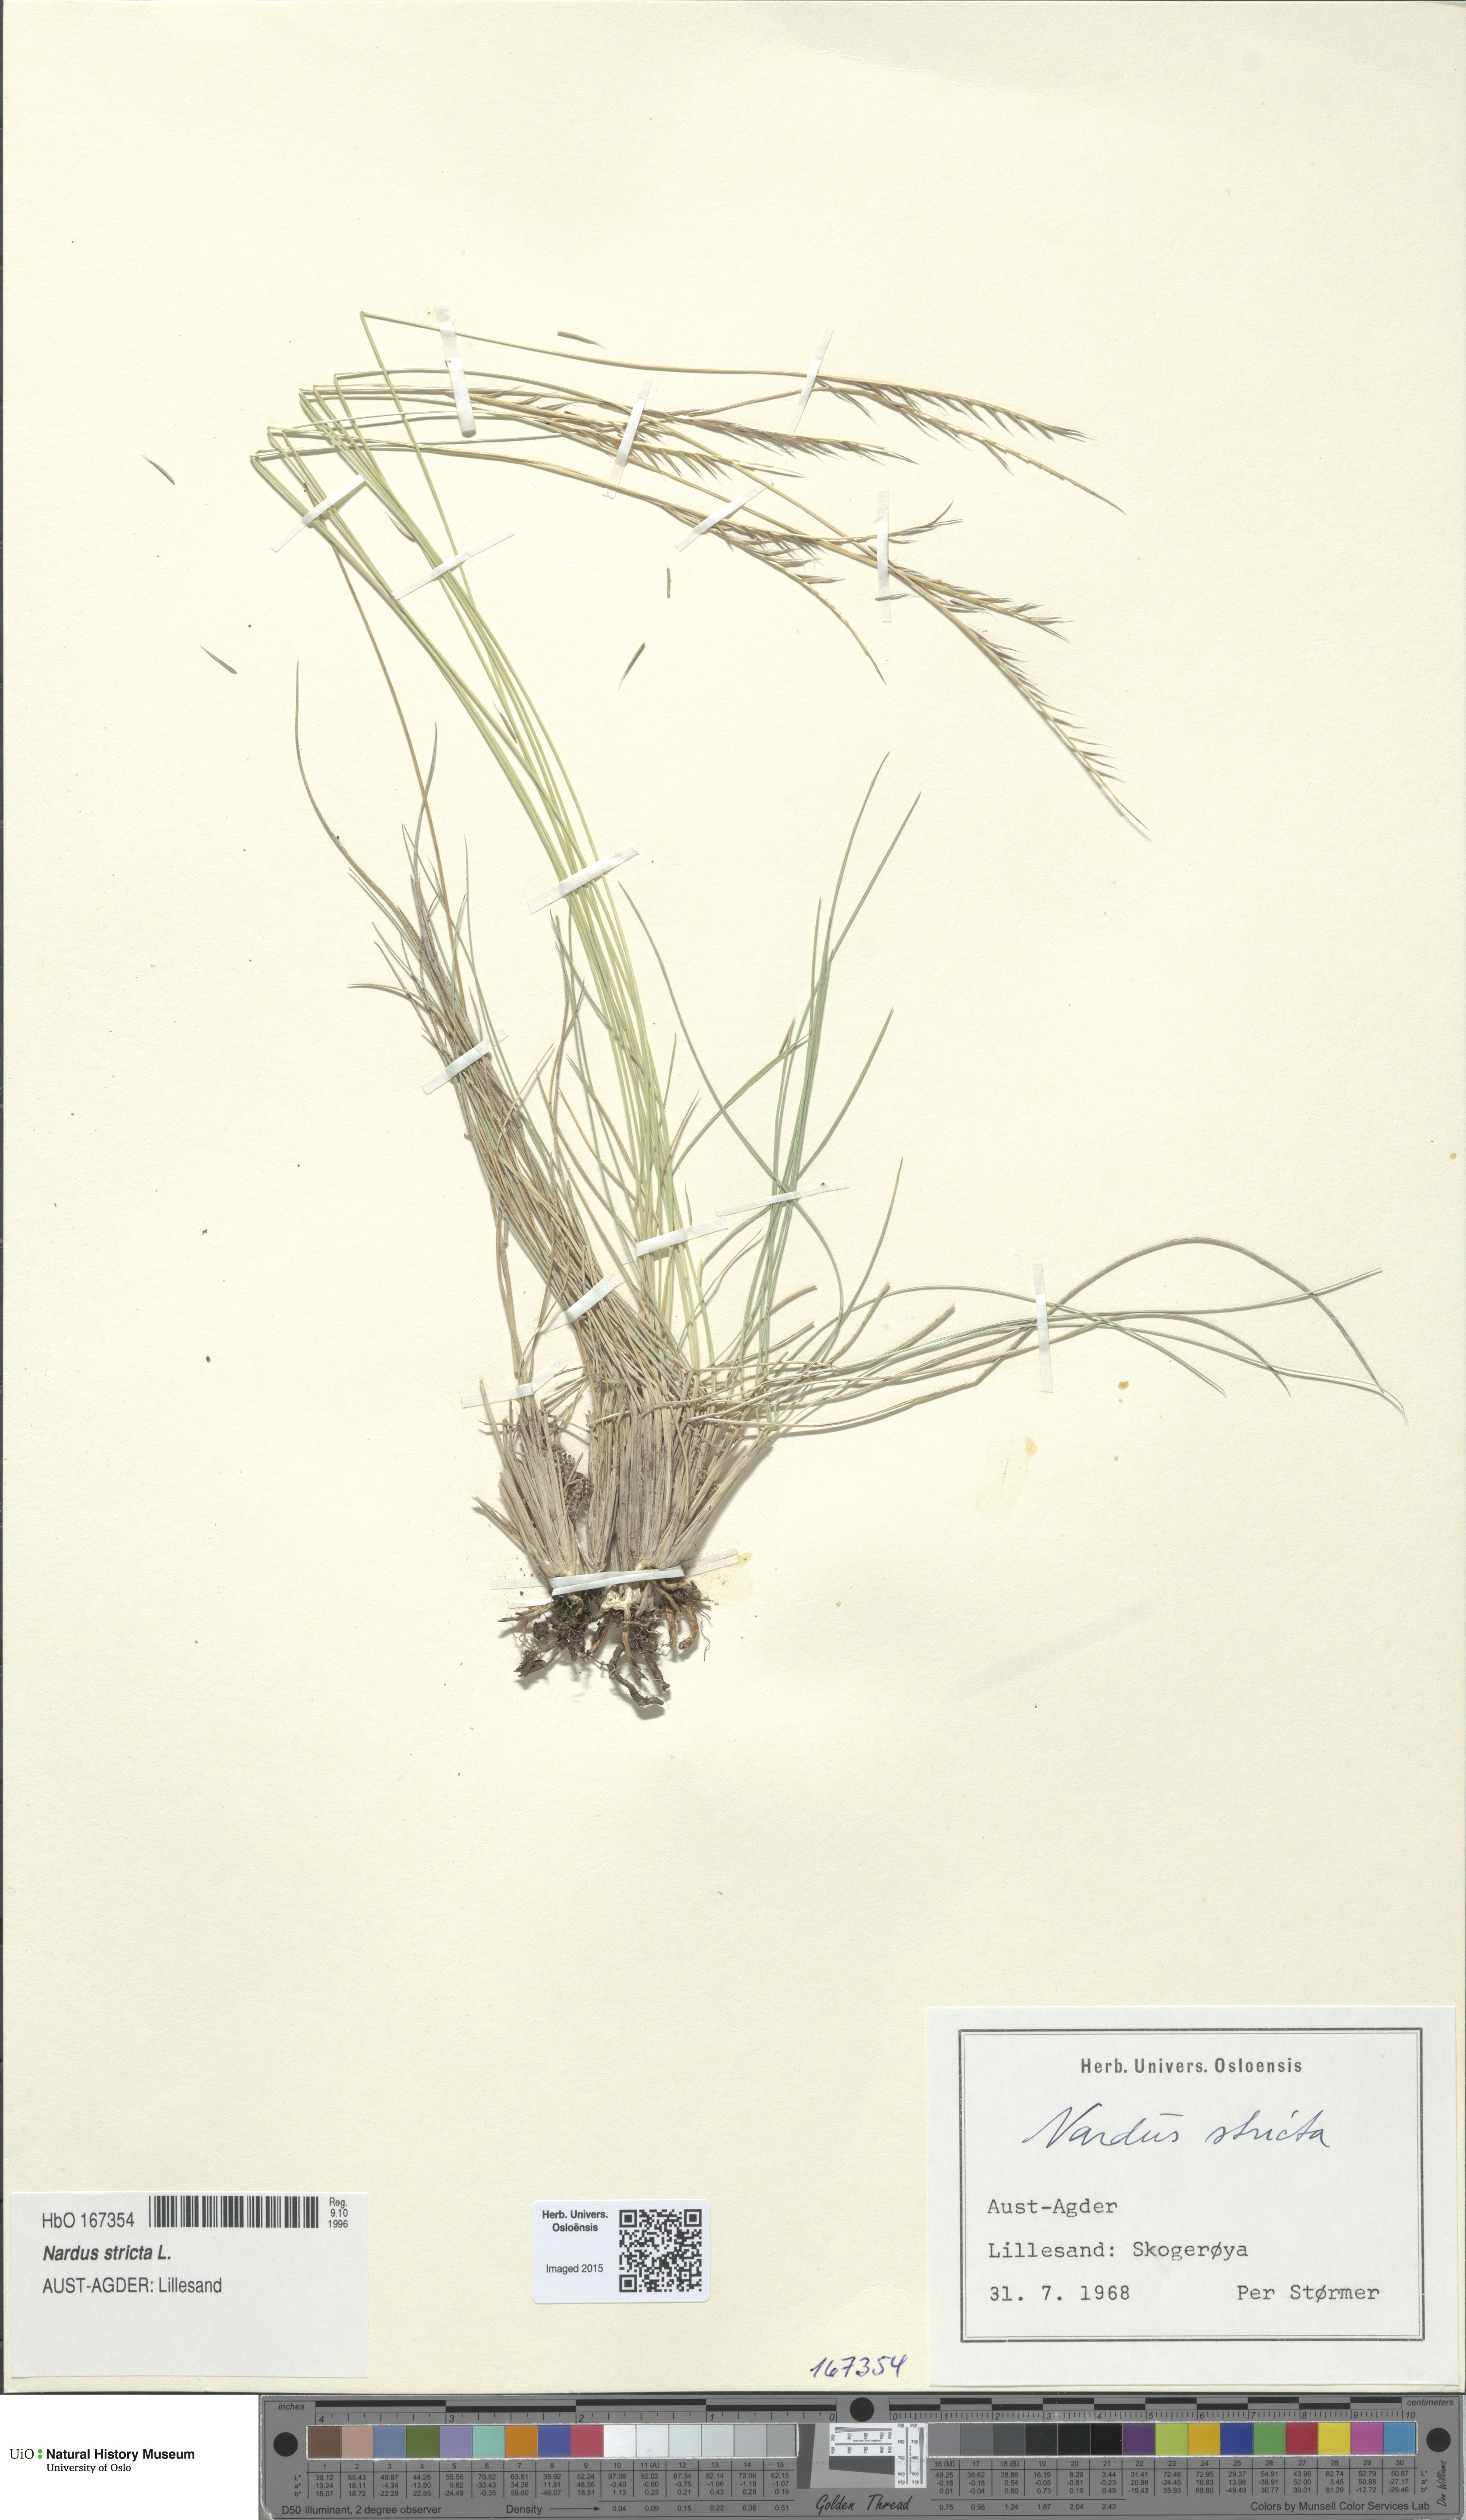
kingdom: Plantae
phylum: Tracheophyta
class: Liliopsida
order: Poales
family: Poaceae
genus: Nardus
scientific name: Nardus stricta
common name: Mat-grass
